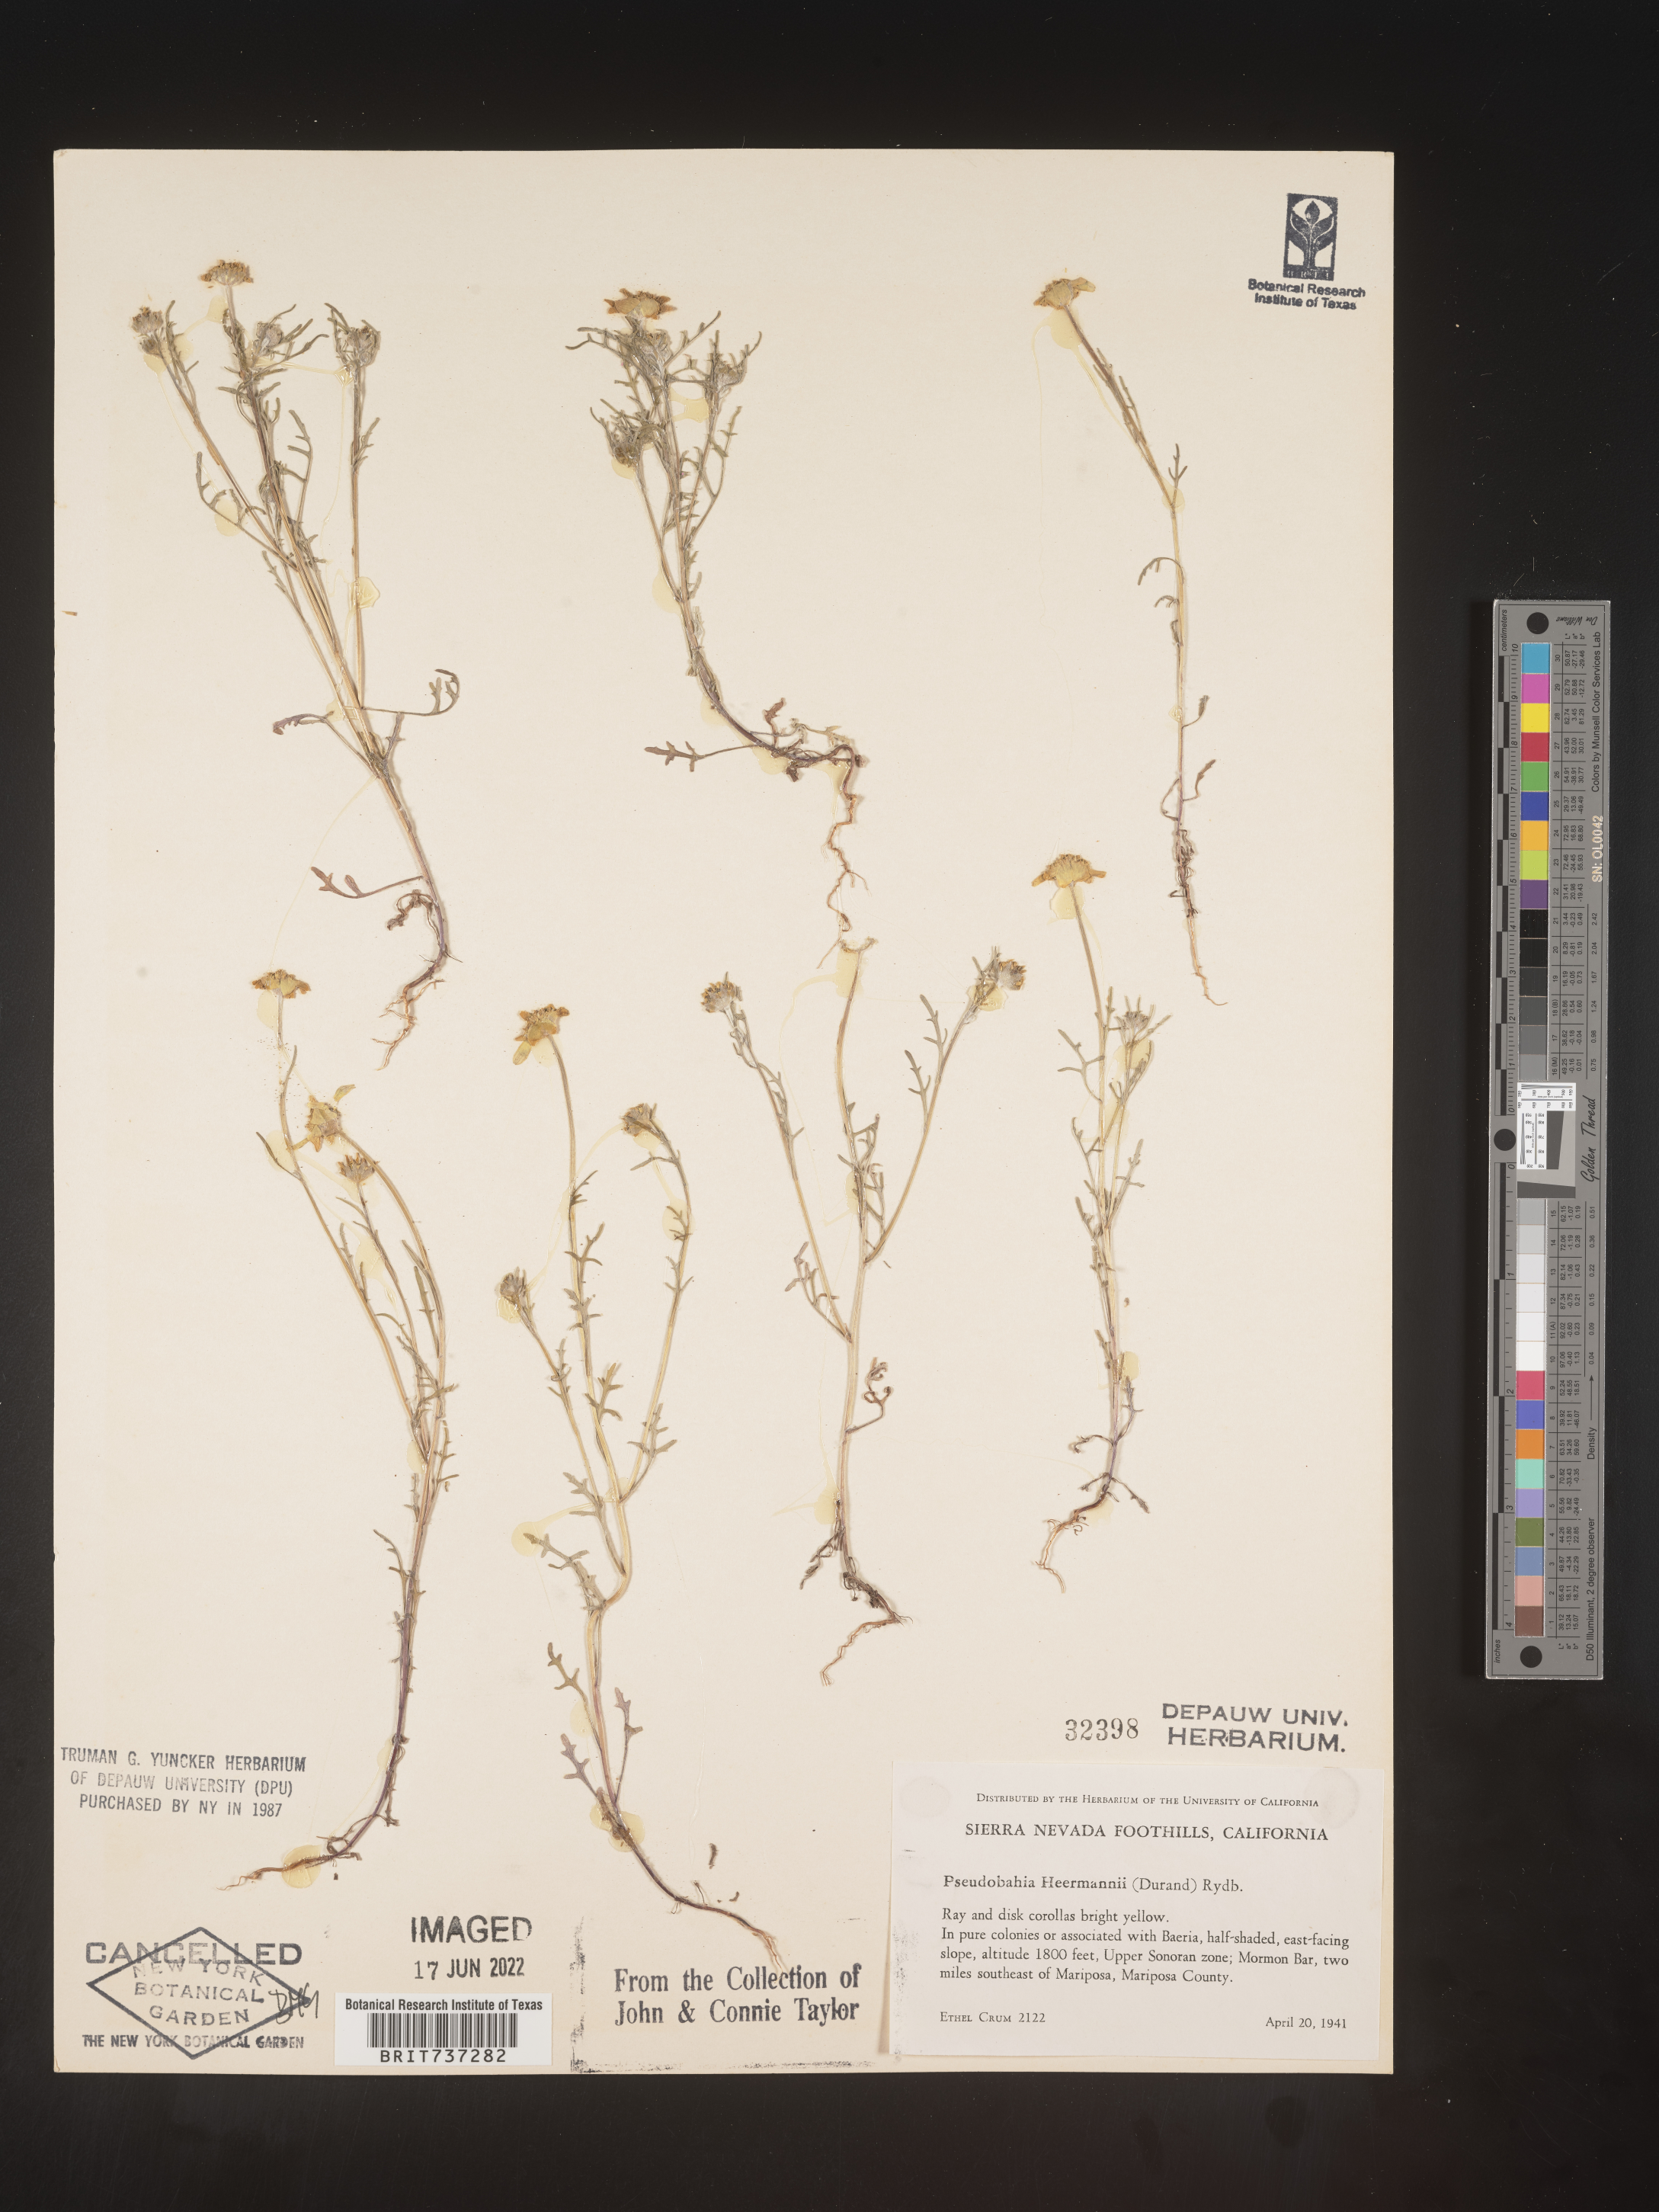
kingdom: Plantae
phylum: Tracheophyta
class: Magnoliopsida
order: Asterales
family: Asteraceae
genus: Pseudobahia
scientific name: Pseudobahia
